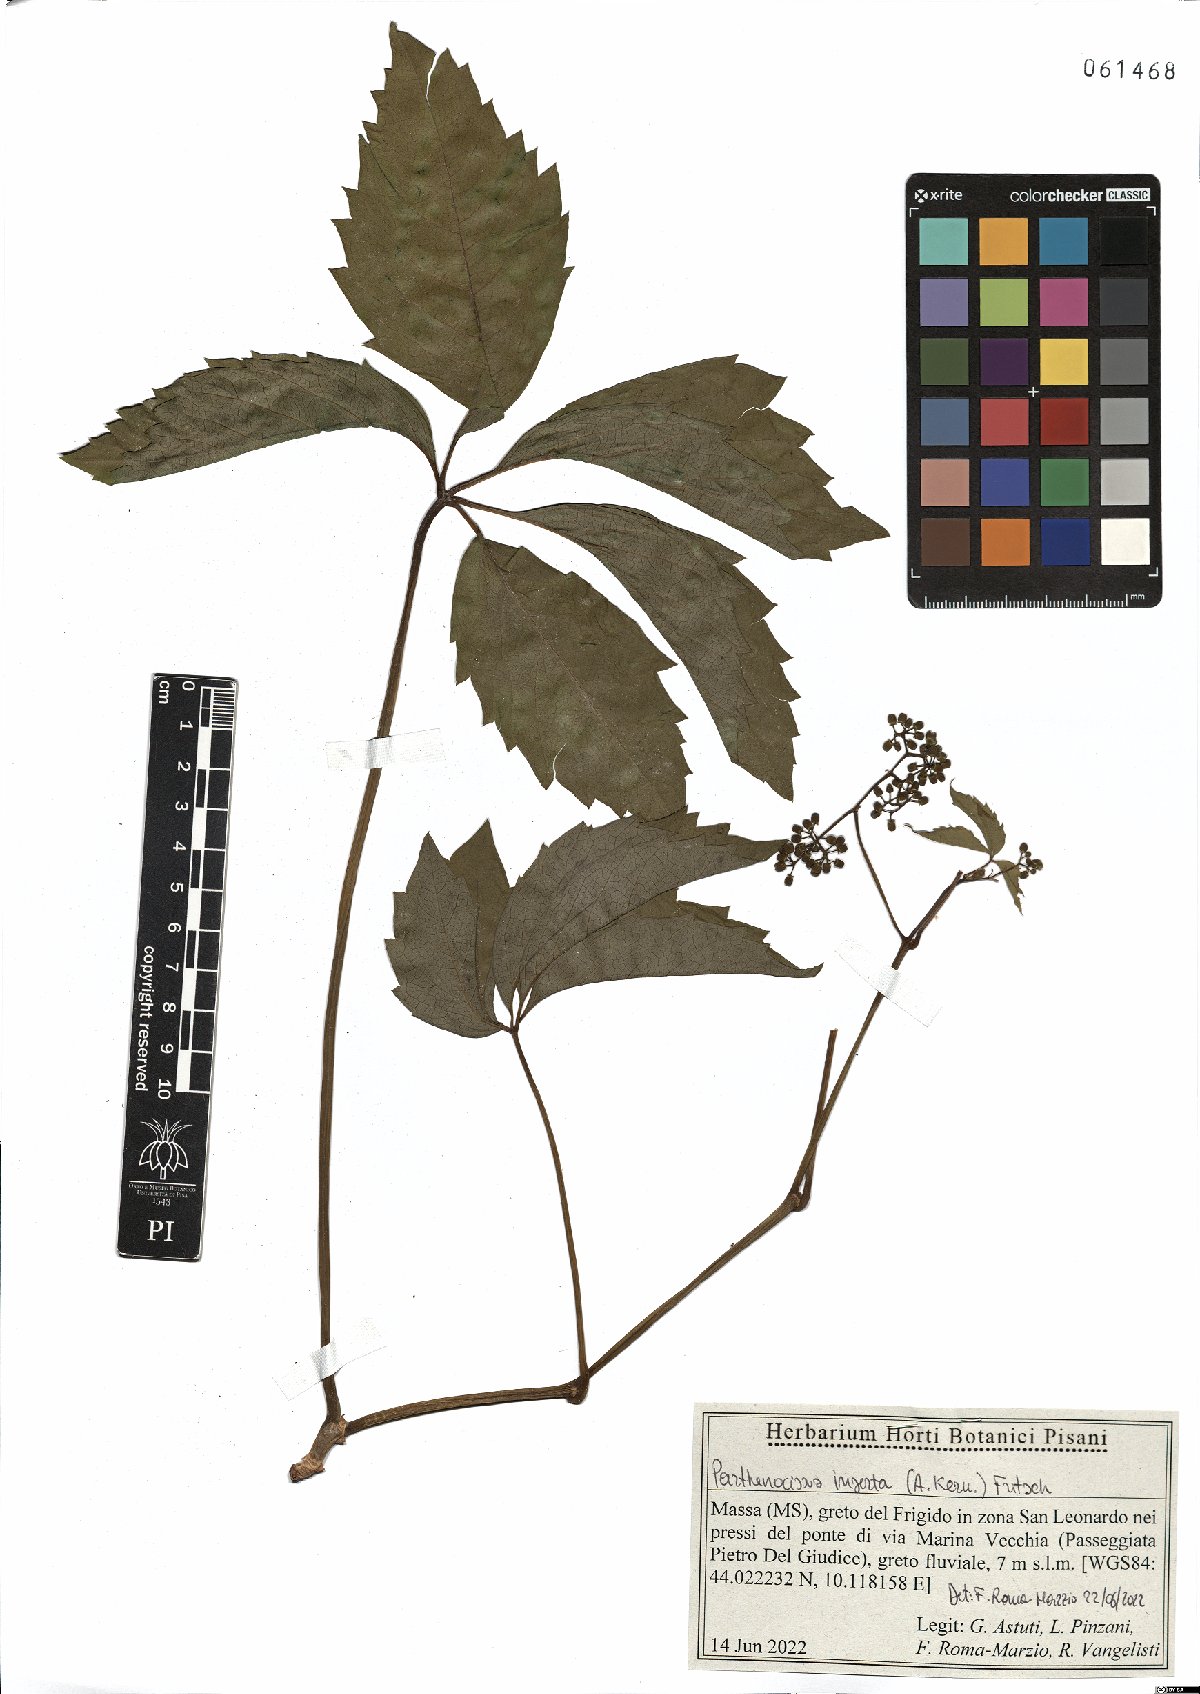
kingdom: Plantae
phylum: Tracheophyta
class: Magnoliopsida
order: Vitales
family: Vitaceae
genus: Parthenocissus
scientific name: Parthenocissus inserta
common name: False virginia-creeper
